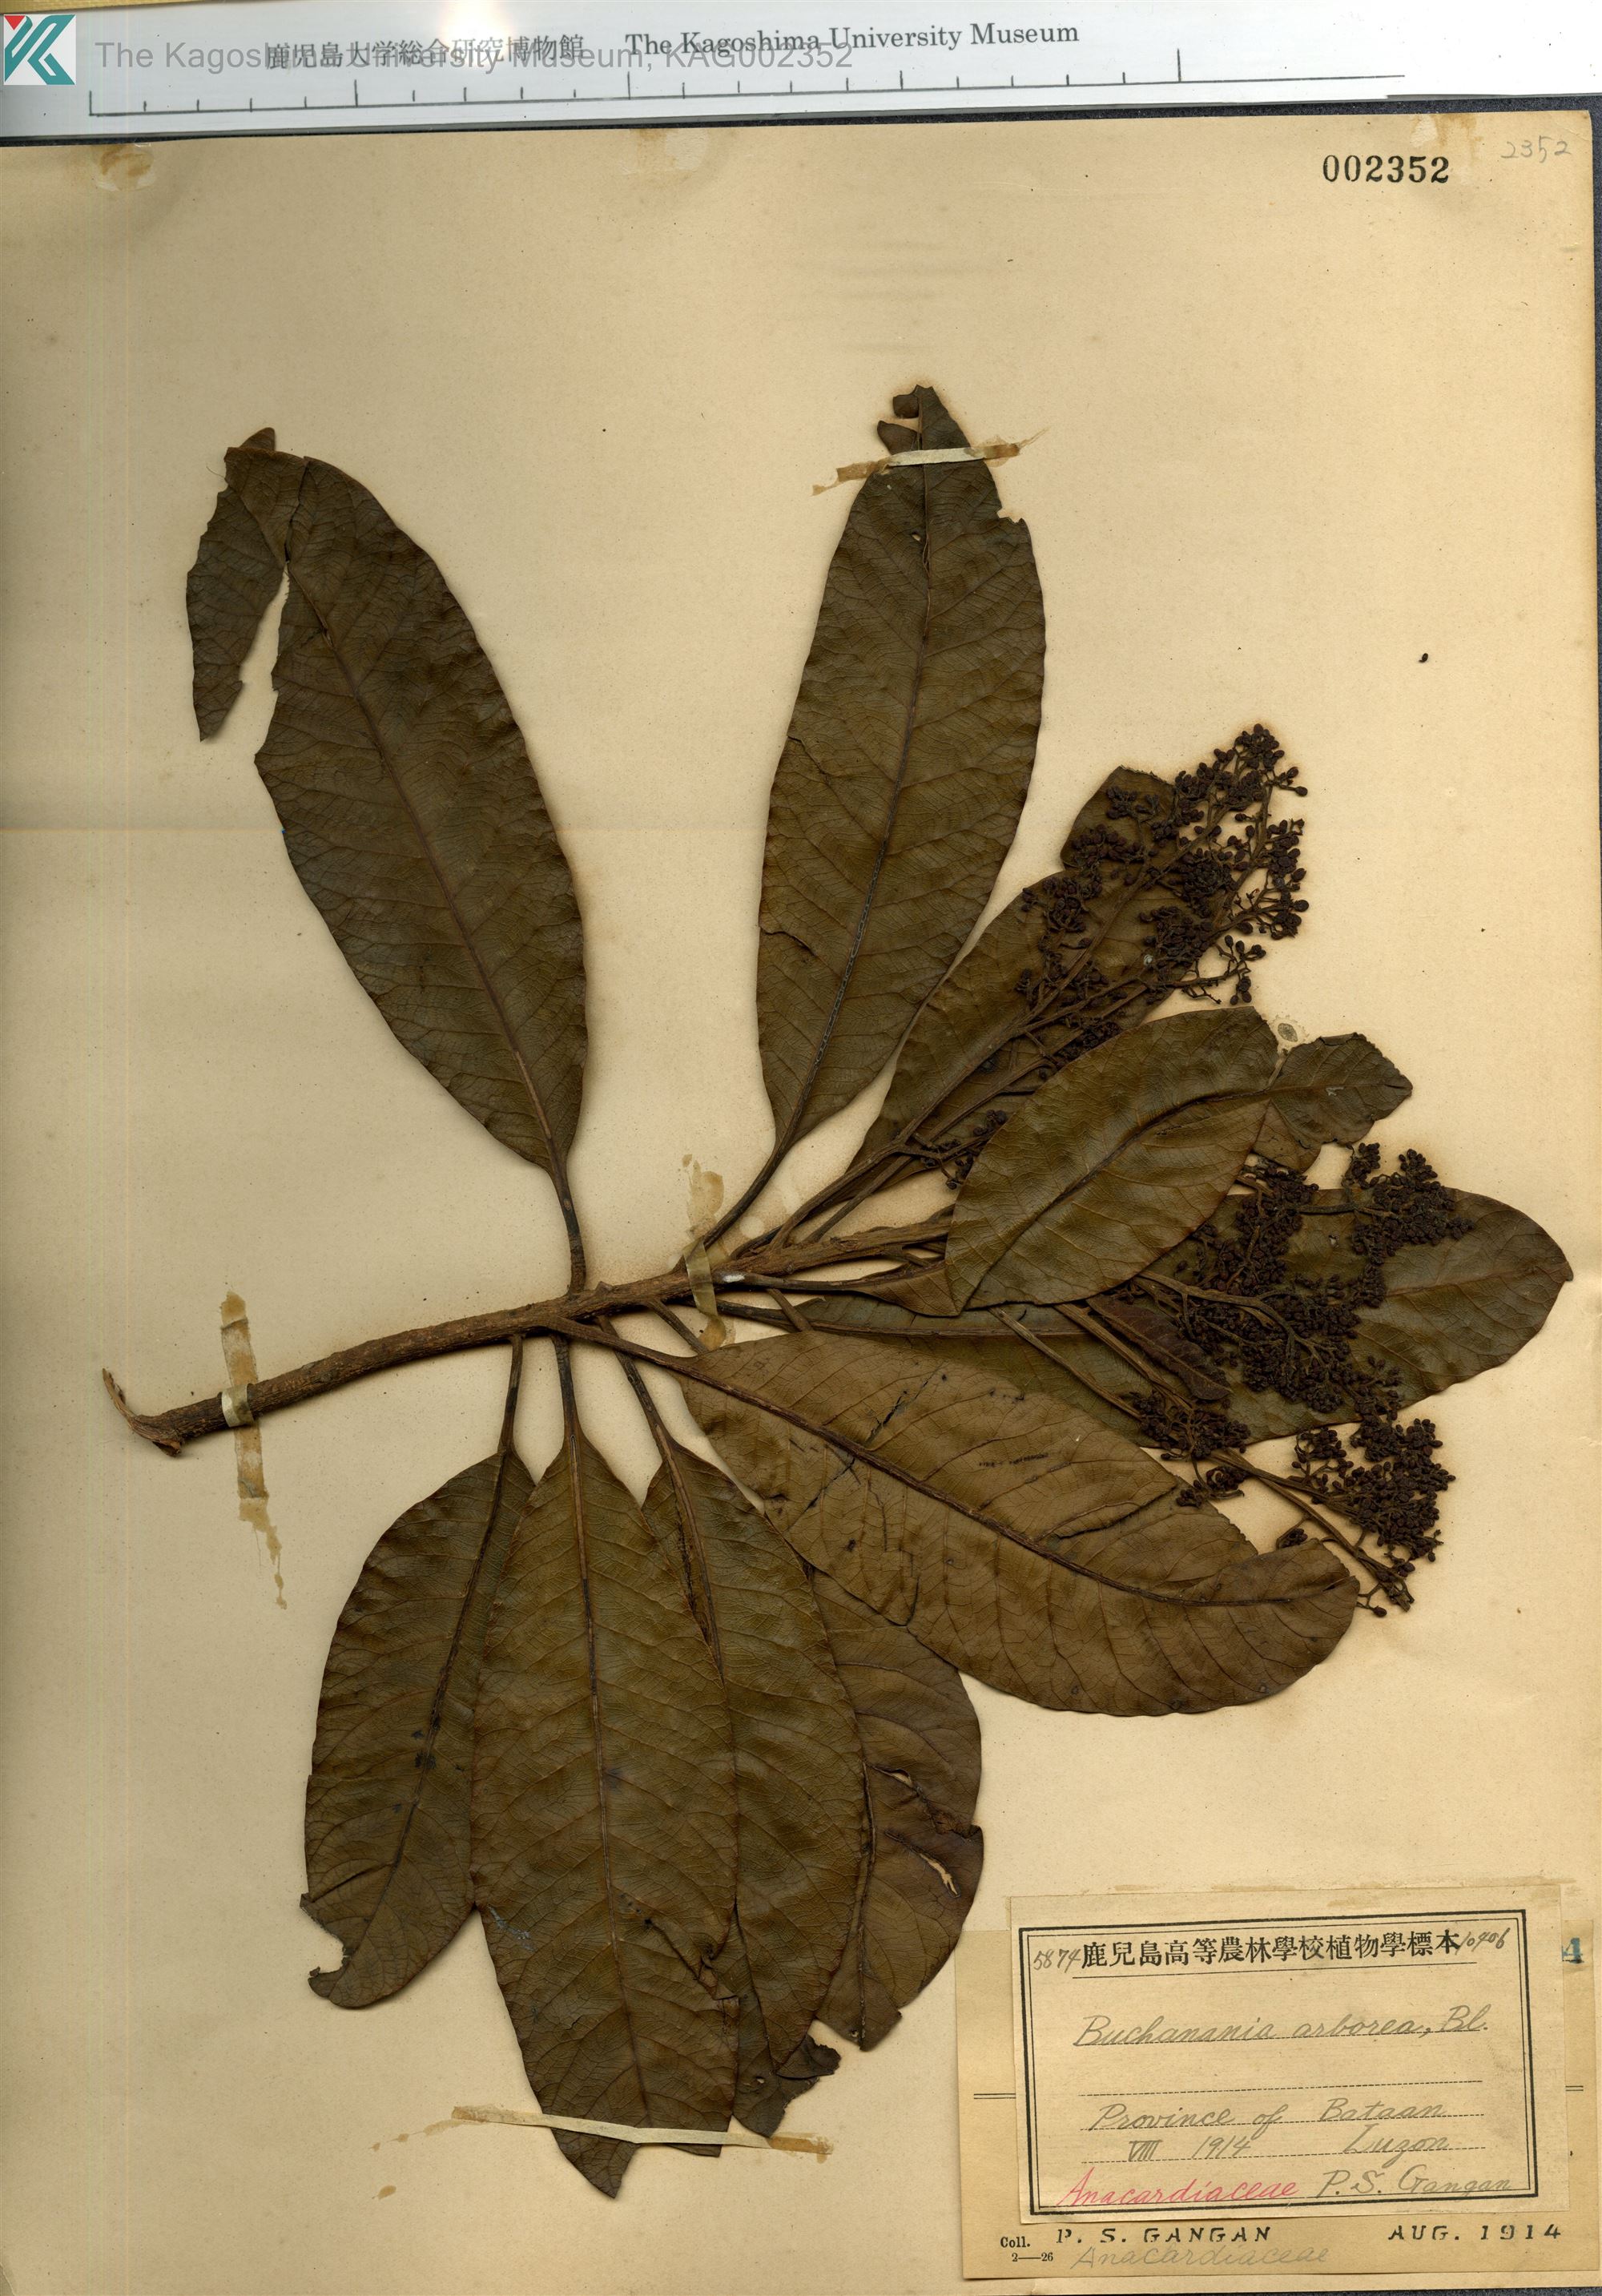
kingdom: Plantae
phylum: Tracheophyta
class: Magnoliopsida
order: Sapindales
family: Anacardiaceae
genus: Buchanania
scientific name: Buchanania arborescens
